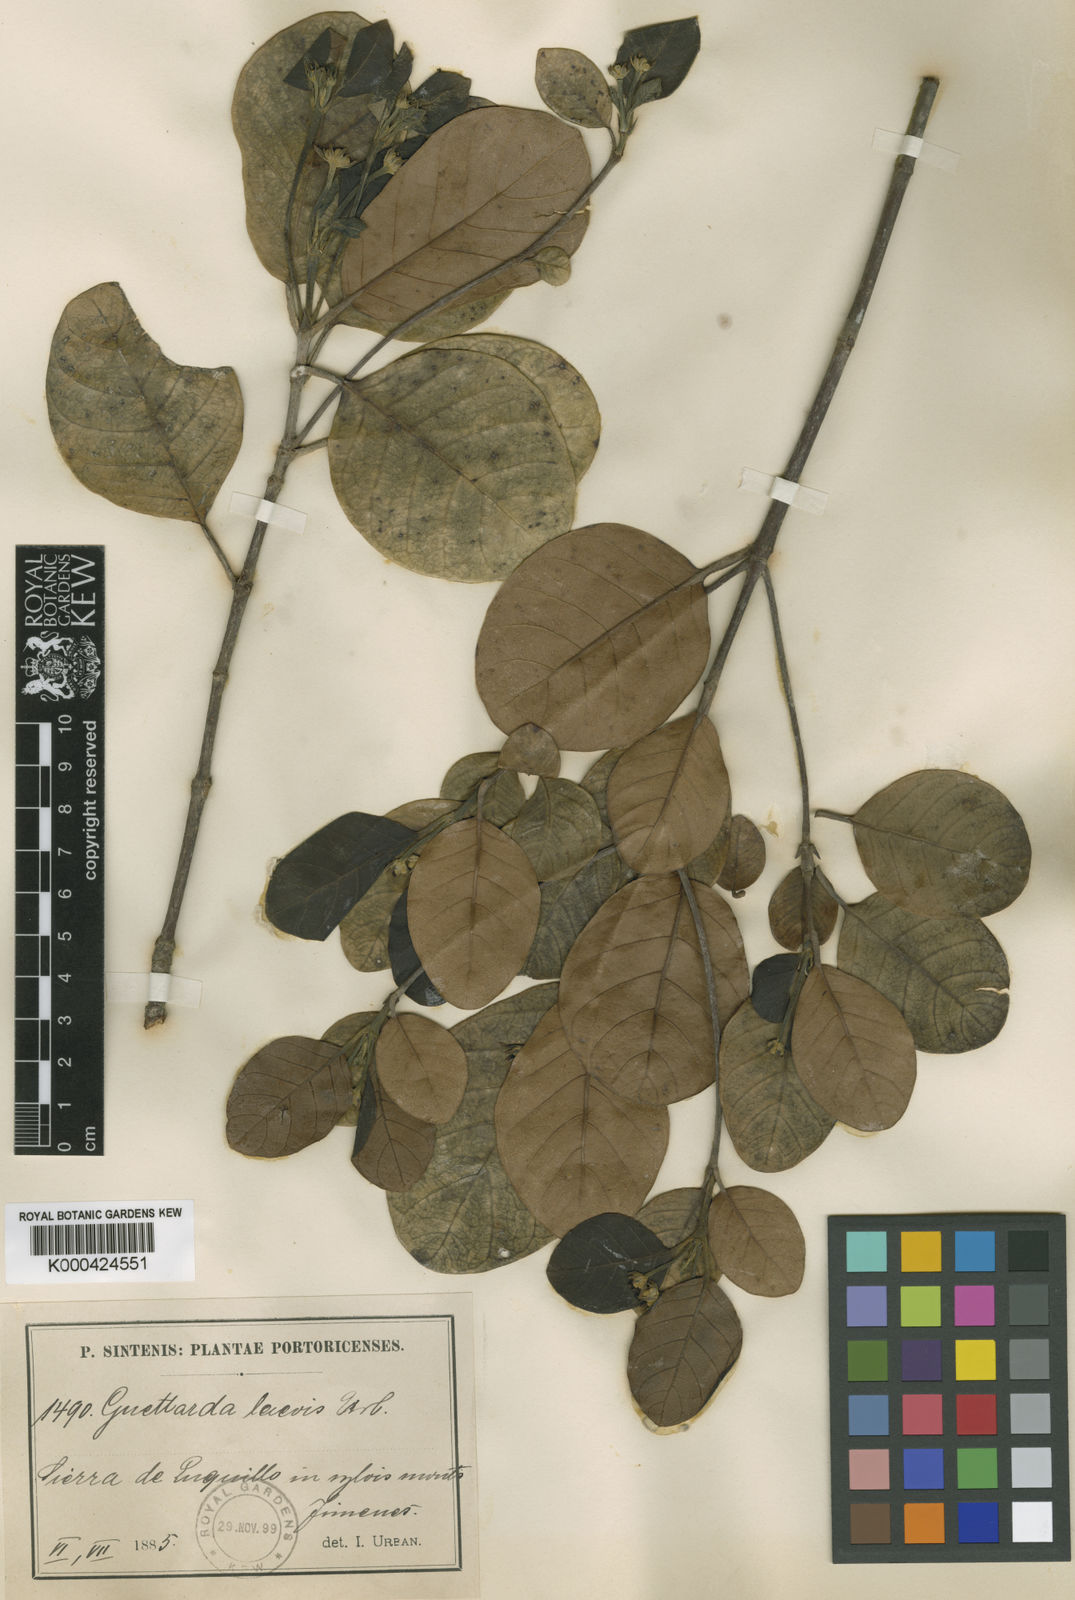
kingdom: Plantae
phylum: Tracheophyta
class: Magnoliopsida
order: Gentianales
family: Rubiaceae
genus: Guettarda
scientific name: Guettarda valenzuelana
